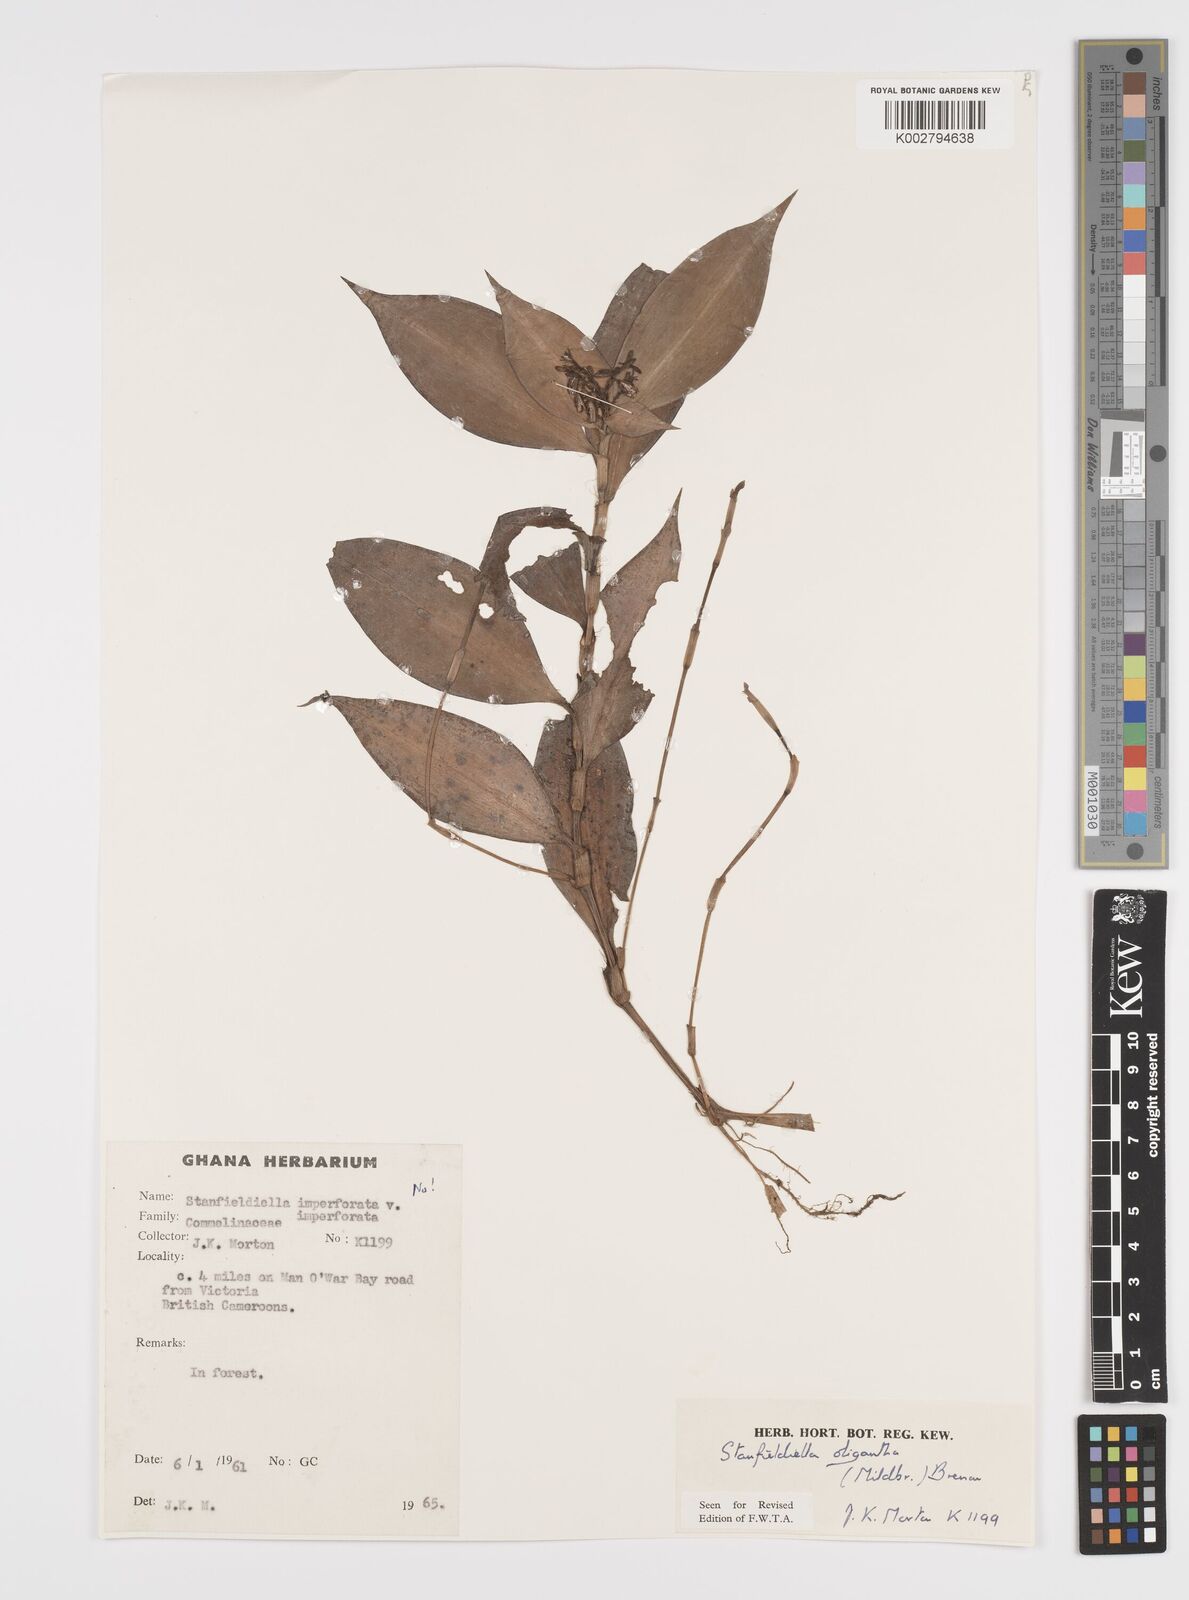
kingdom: Plantae
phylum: Tracheophyta
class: Liliopsida
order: Commelinales
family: Commelinaceae
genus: Stanfieldiella
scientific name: Stanfieldiella oligantha
